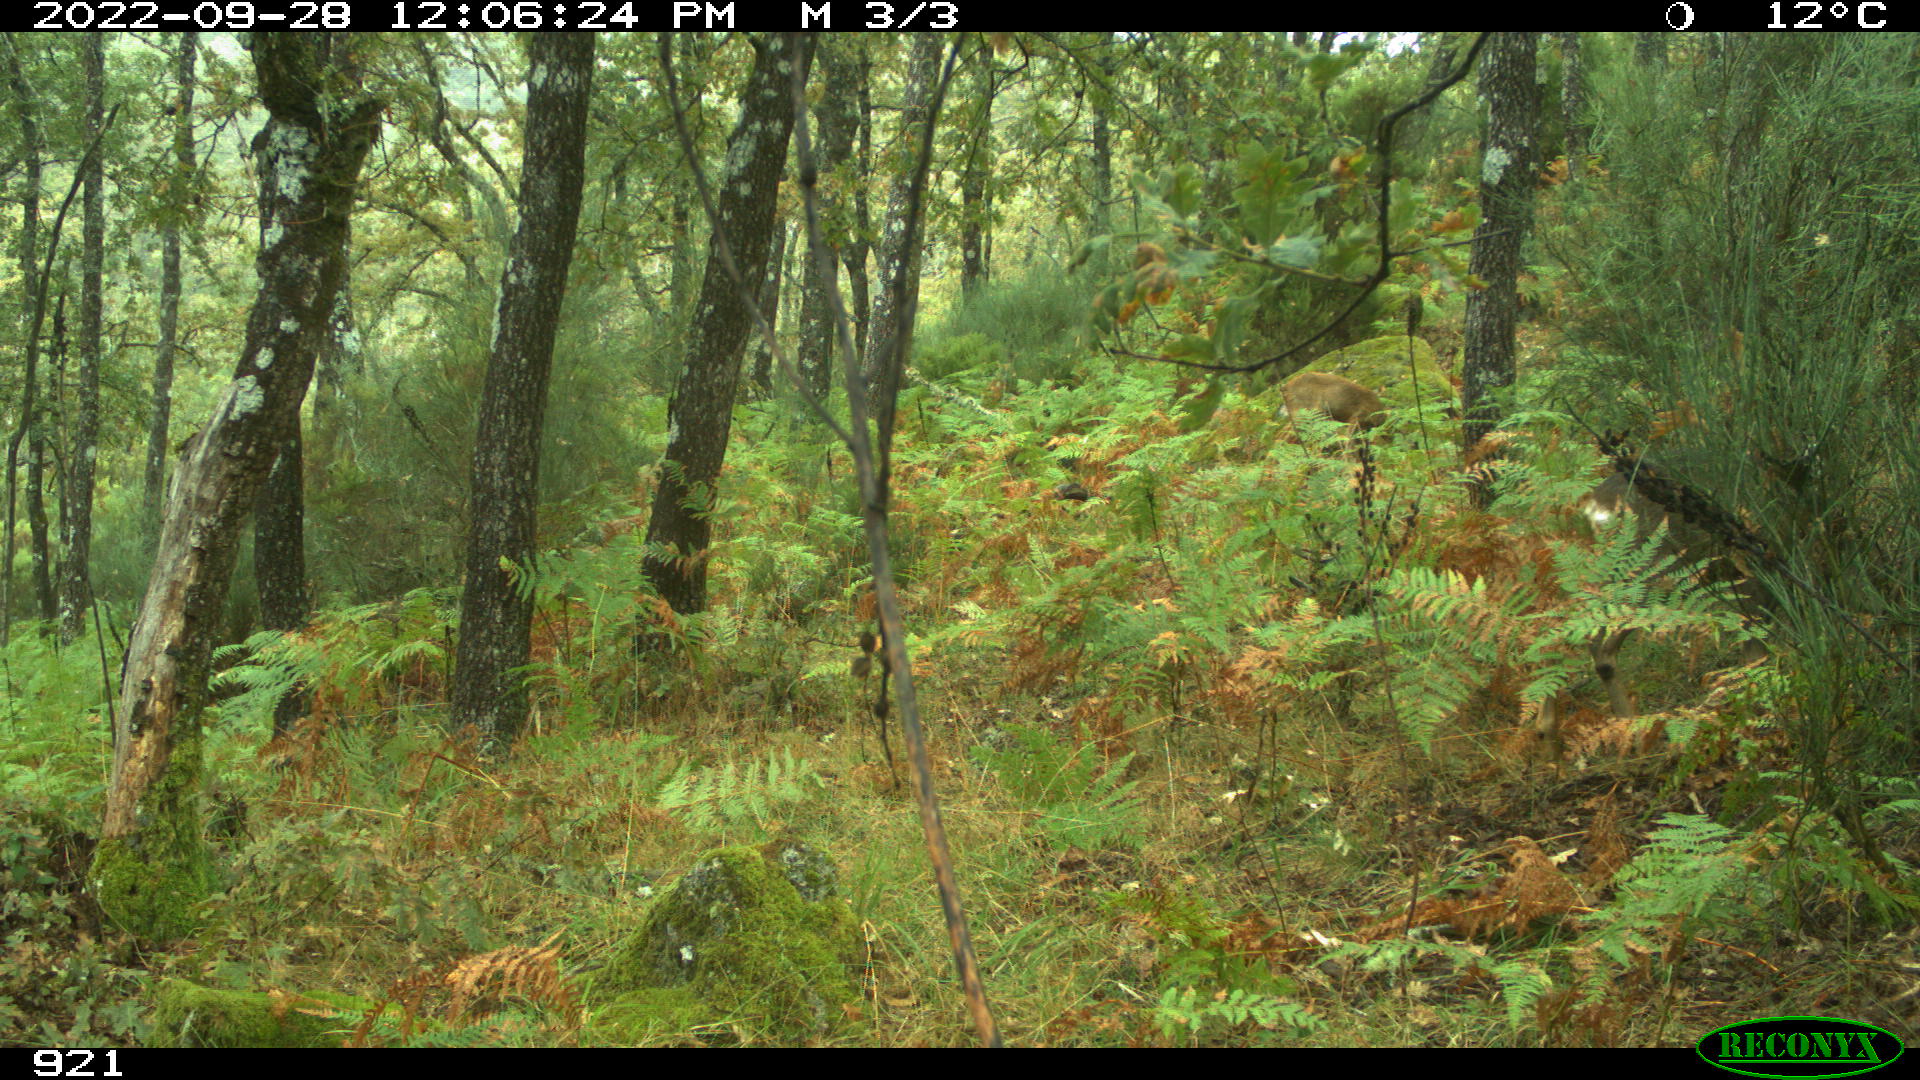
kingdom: Animalia
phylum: Chordata
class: Mammalia
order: Artiodactyla
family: Cervidae
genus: Capreolus
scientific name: Capreolus capreolus
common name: Western roe deer
